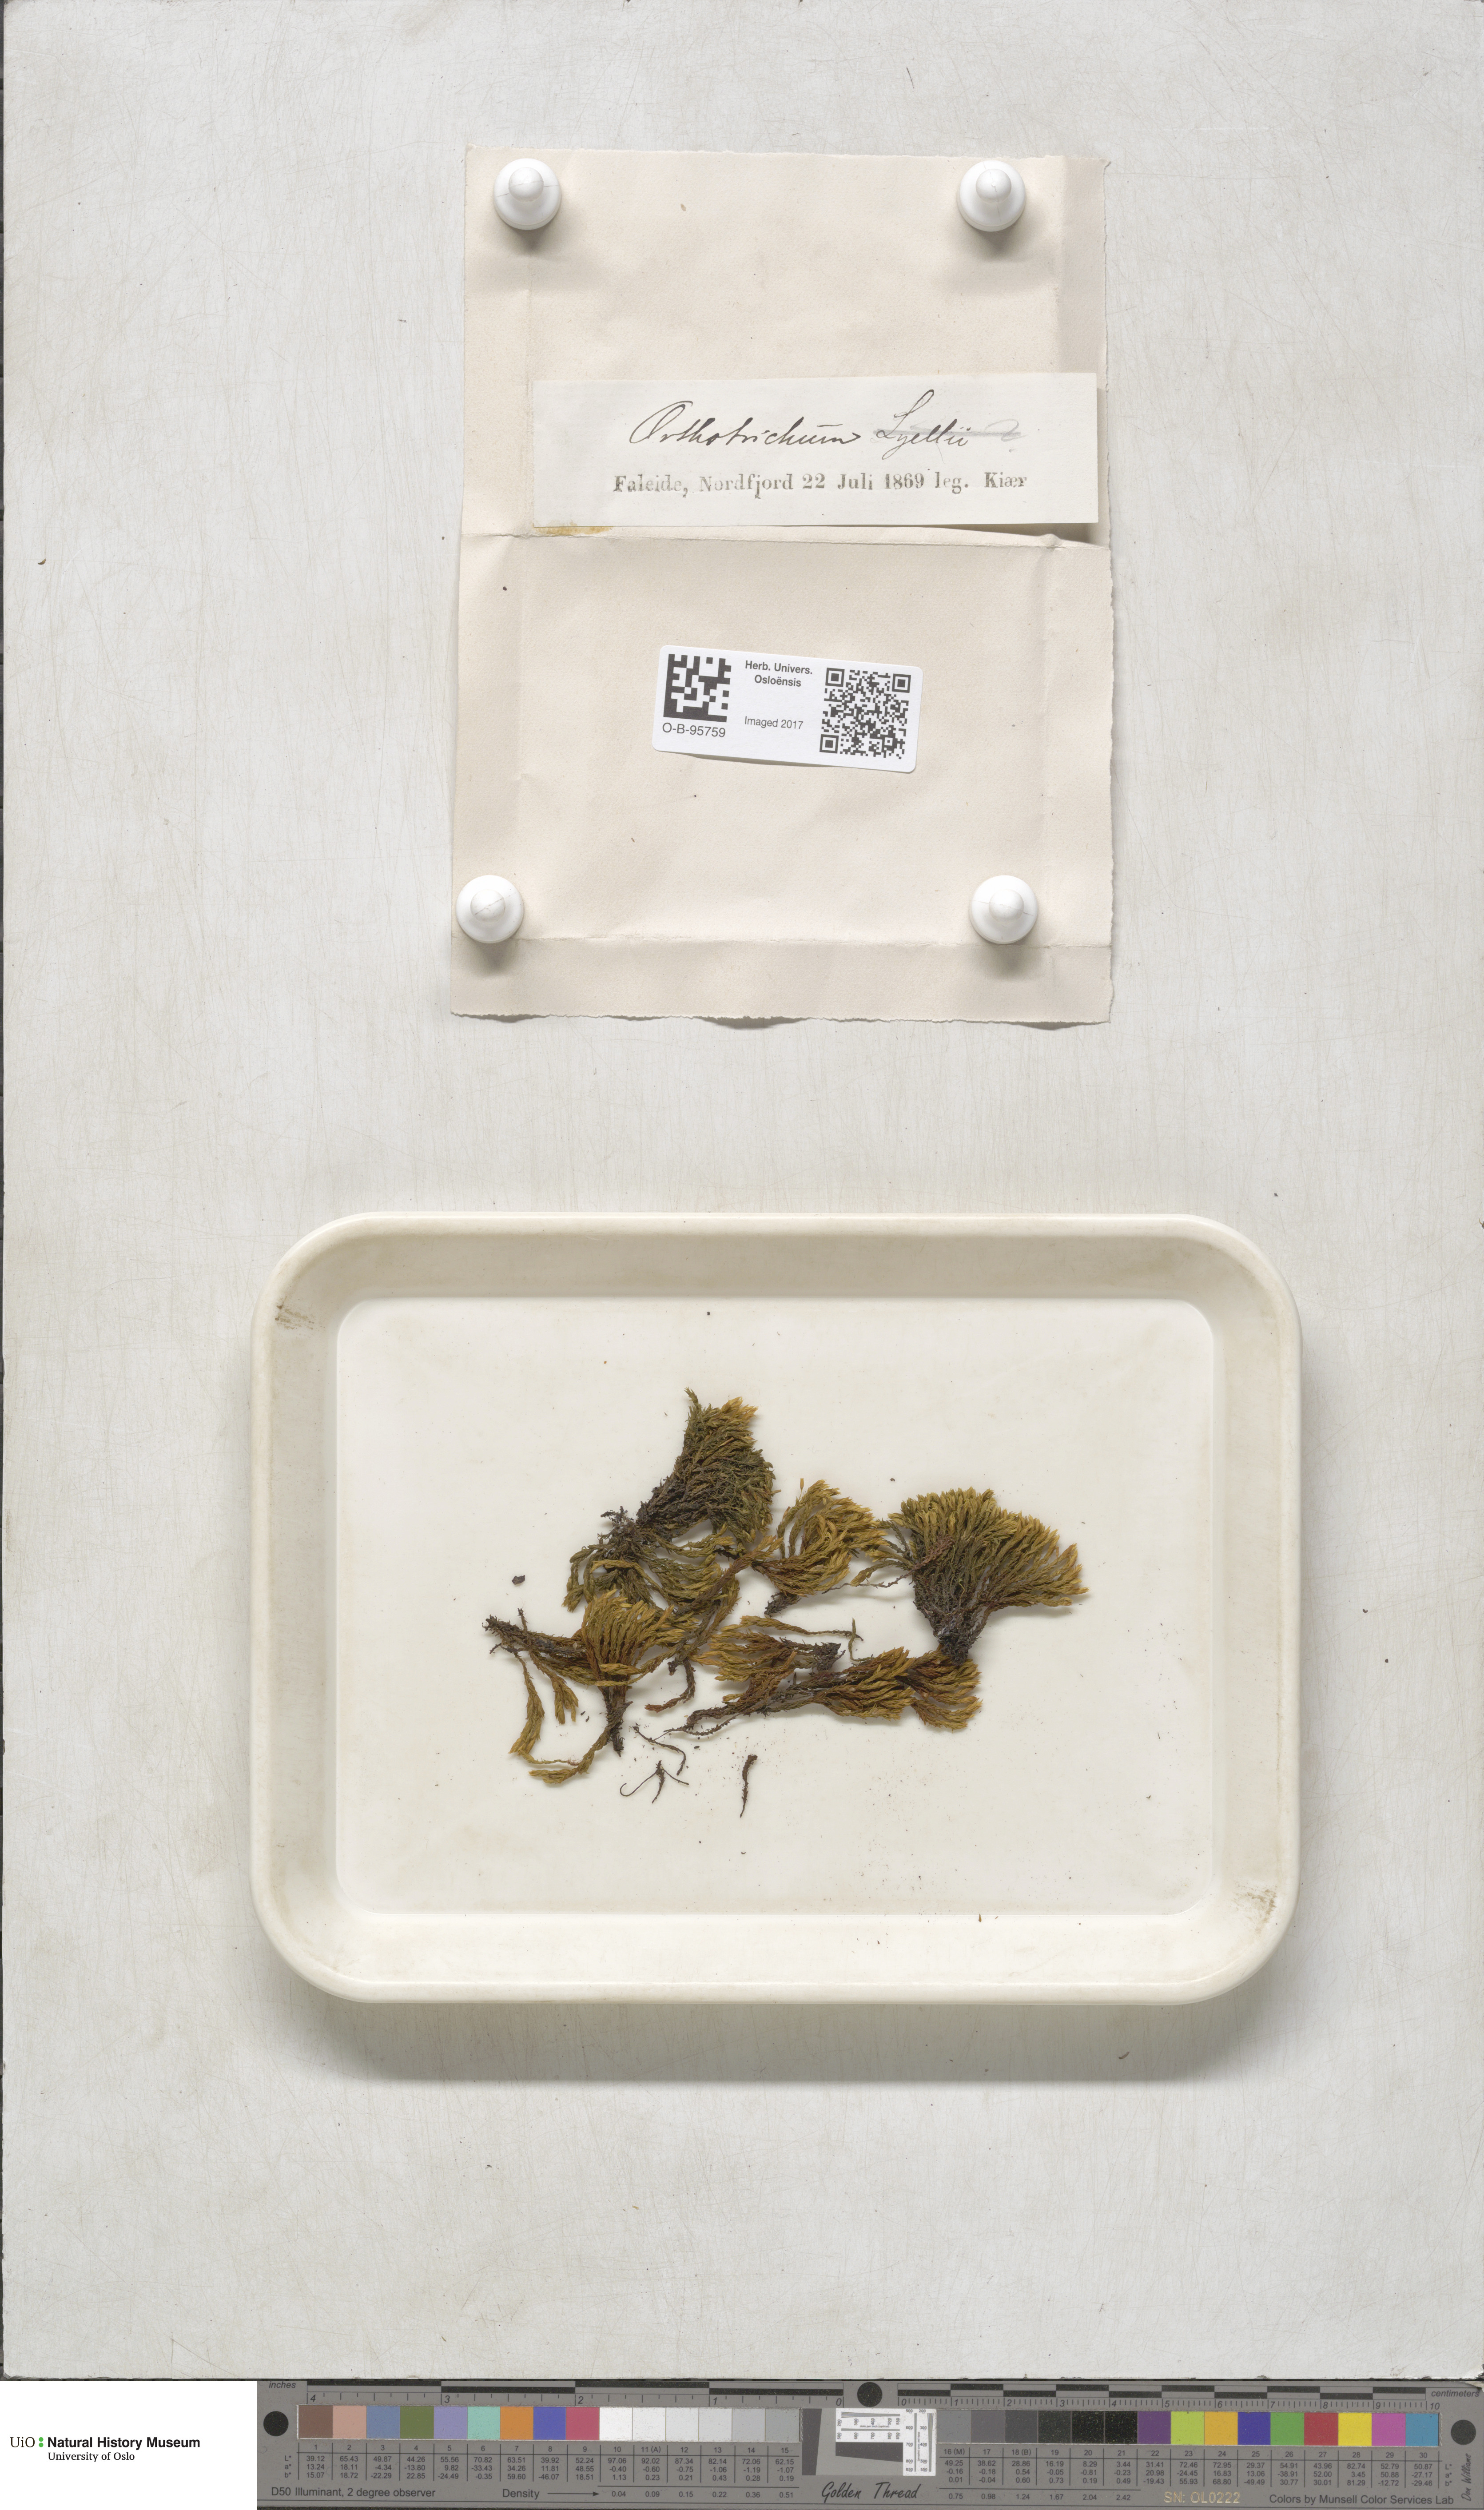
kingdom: Plantae
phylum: Bryophyta
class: Bryopsida
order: Orthotrichales
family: Orthotrichaceae
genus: Orthotrichum
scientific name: Orthotrichum
